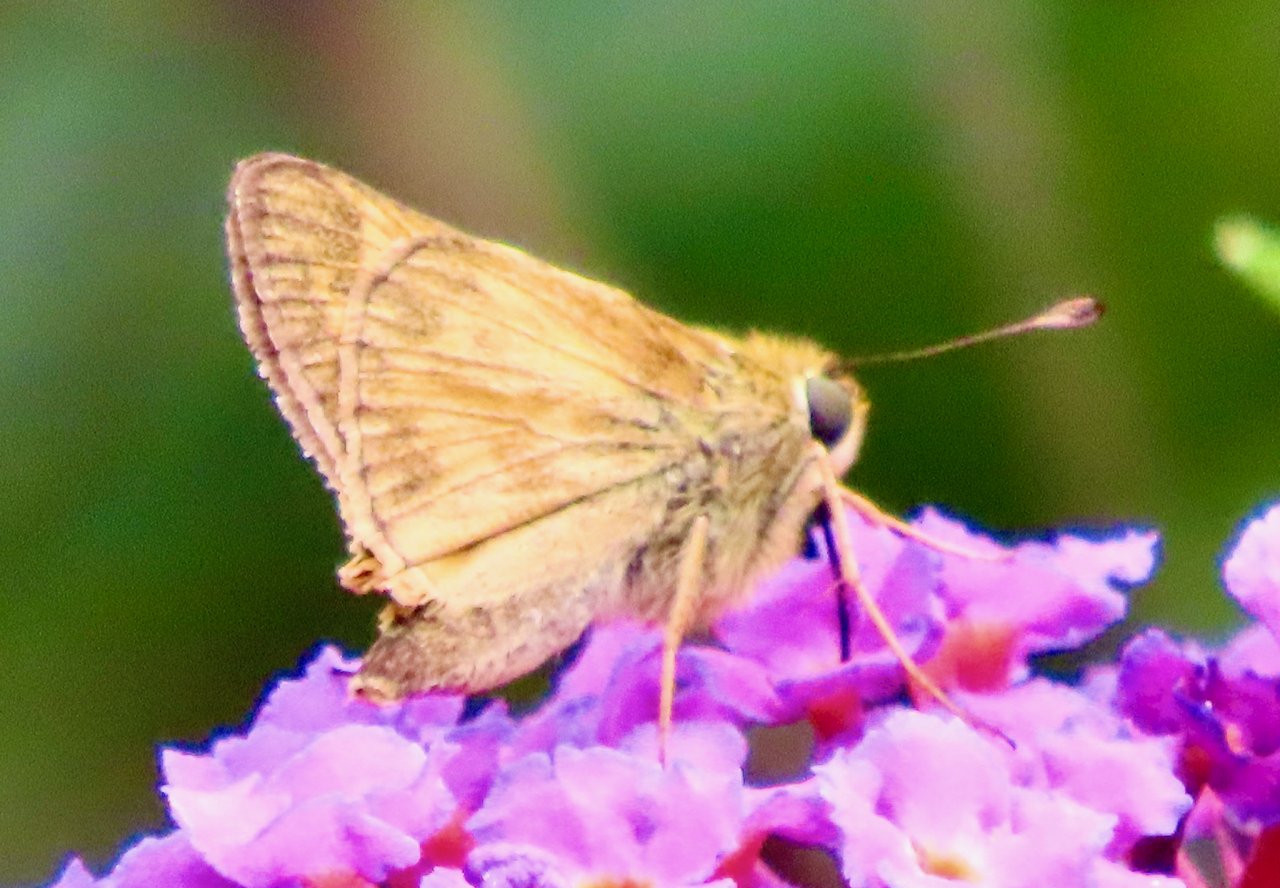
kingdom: Animalia
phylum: Arthropoda
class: Insecta
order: Lepidoptera
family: Hesperiidae
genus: Atalopedes
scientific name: Atalopedes campestris
